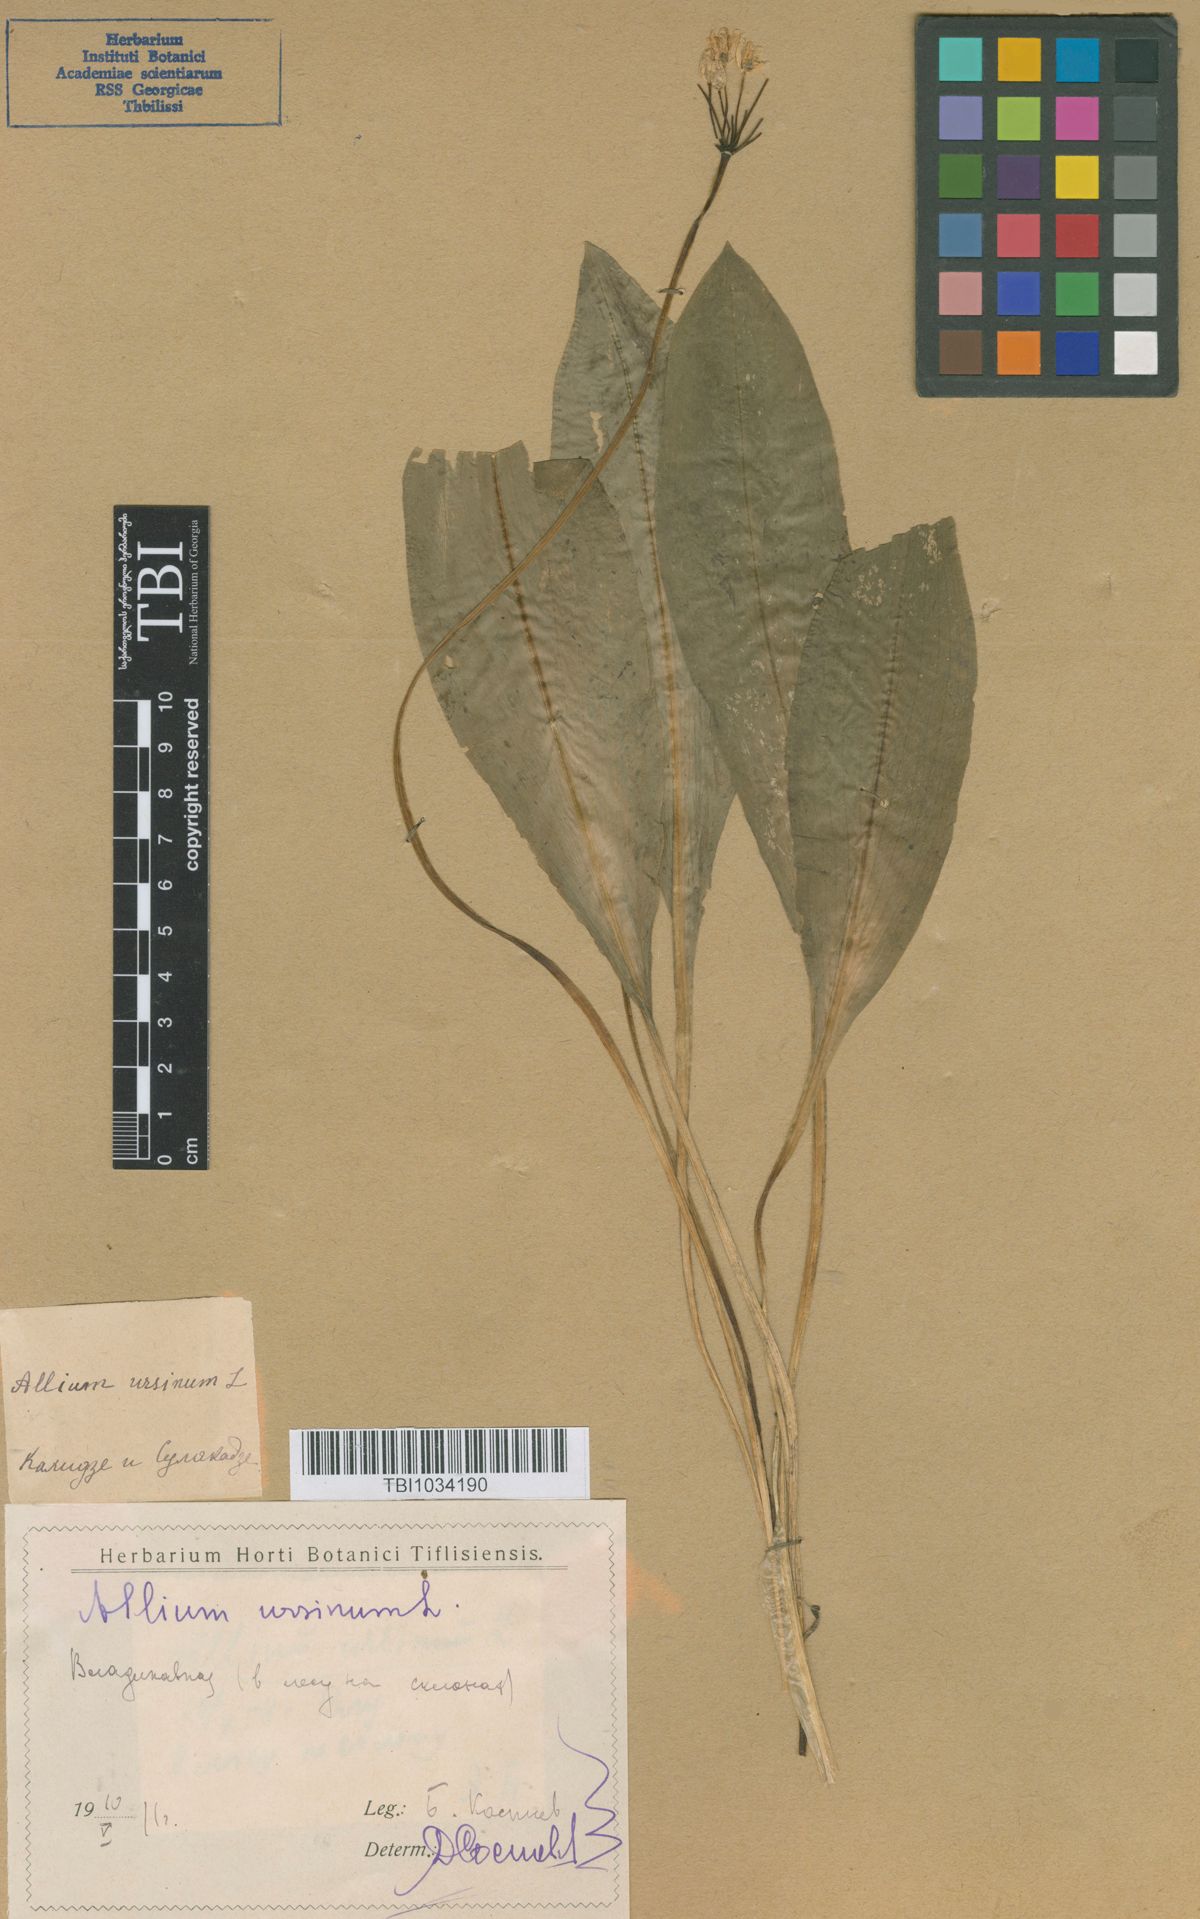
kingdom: Plantae
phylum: Tracheophyta
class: Liliopsida
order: Asparagales
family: Amaryllidaceae
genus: Allium
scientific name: Allium ursinum
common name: Ramsons
